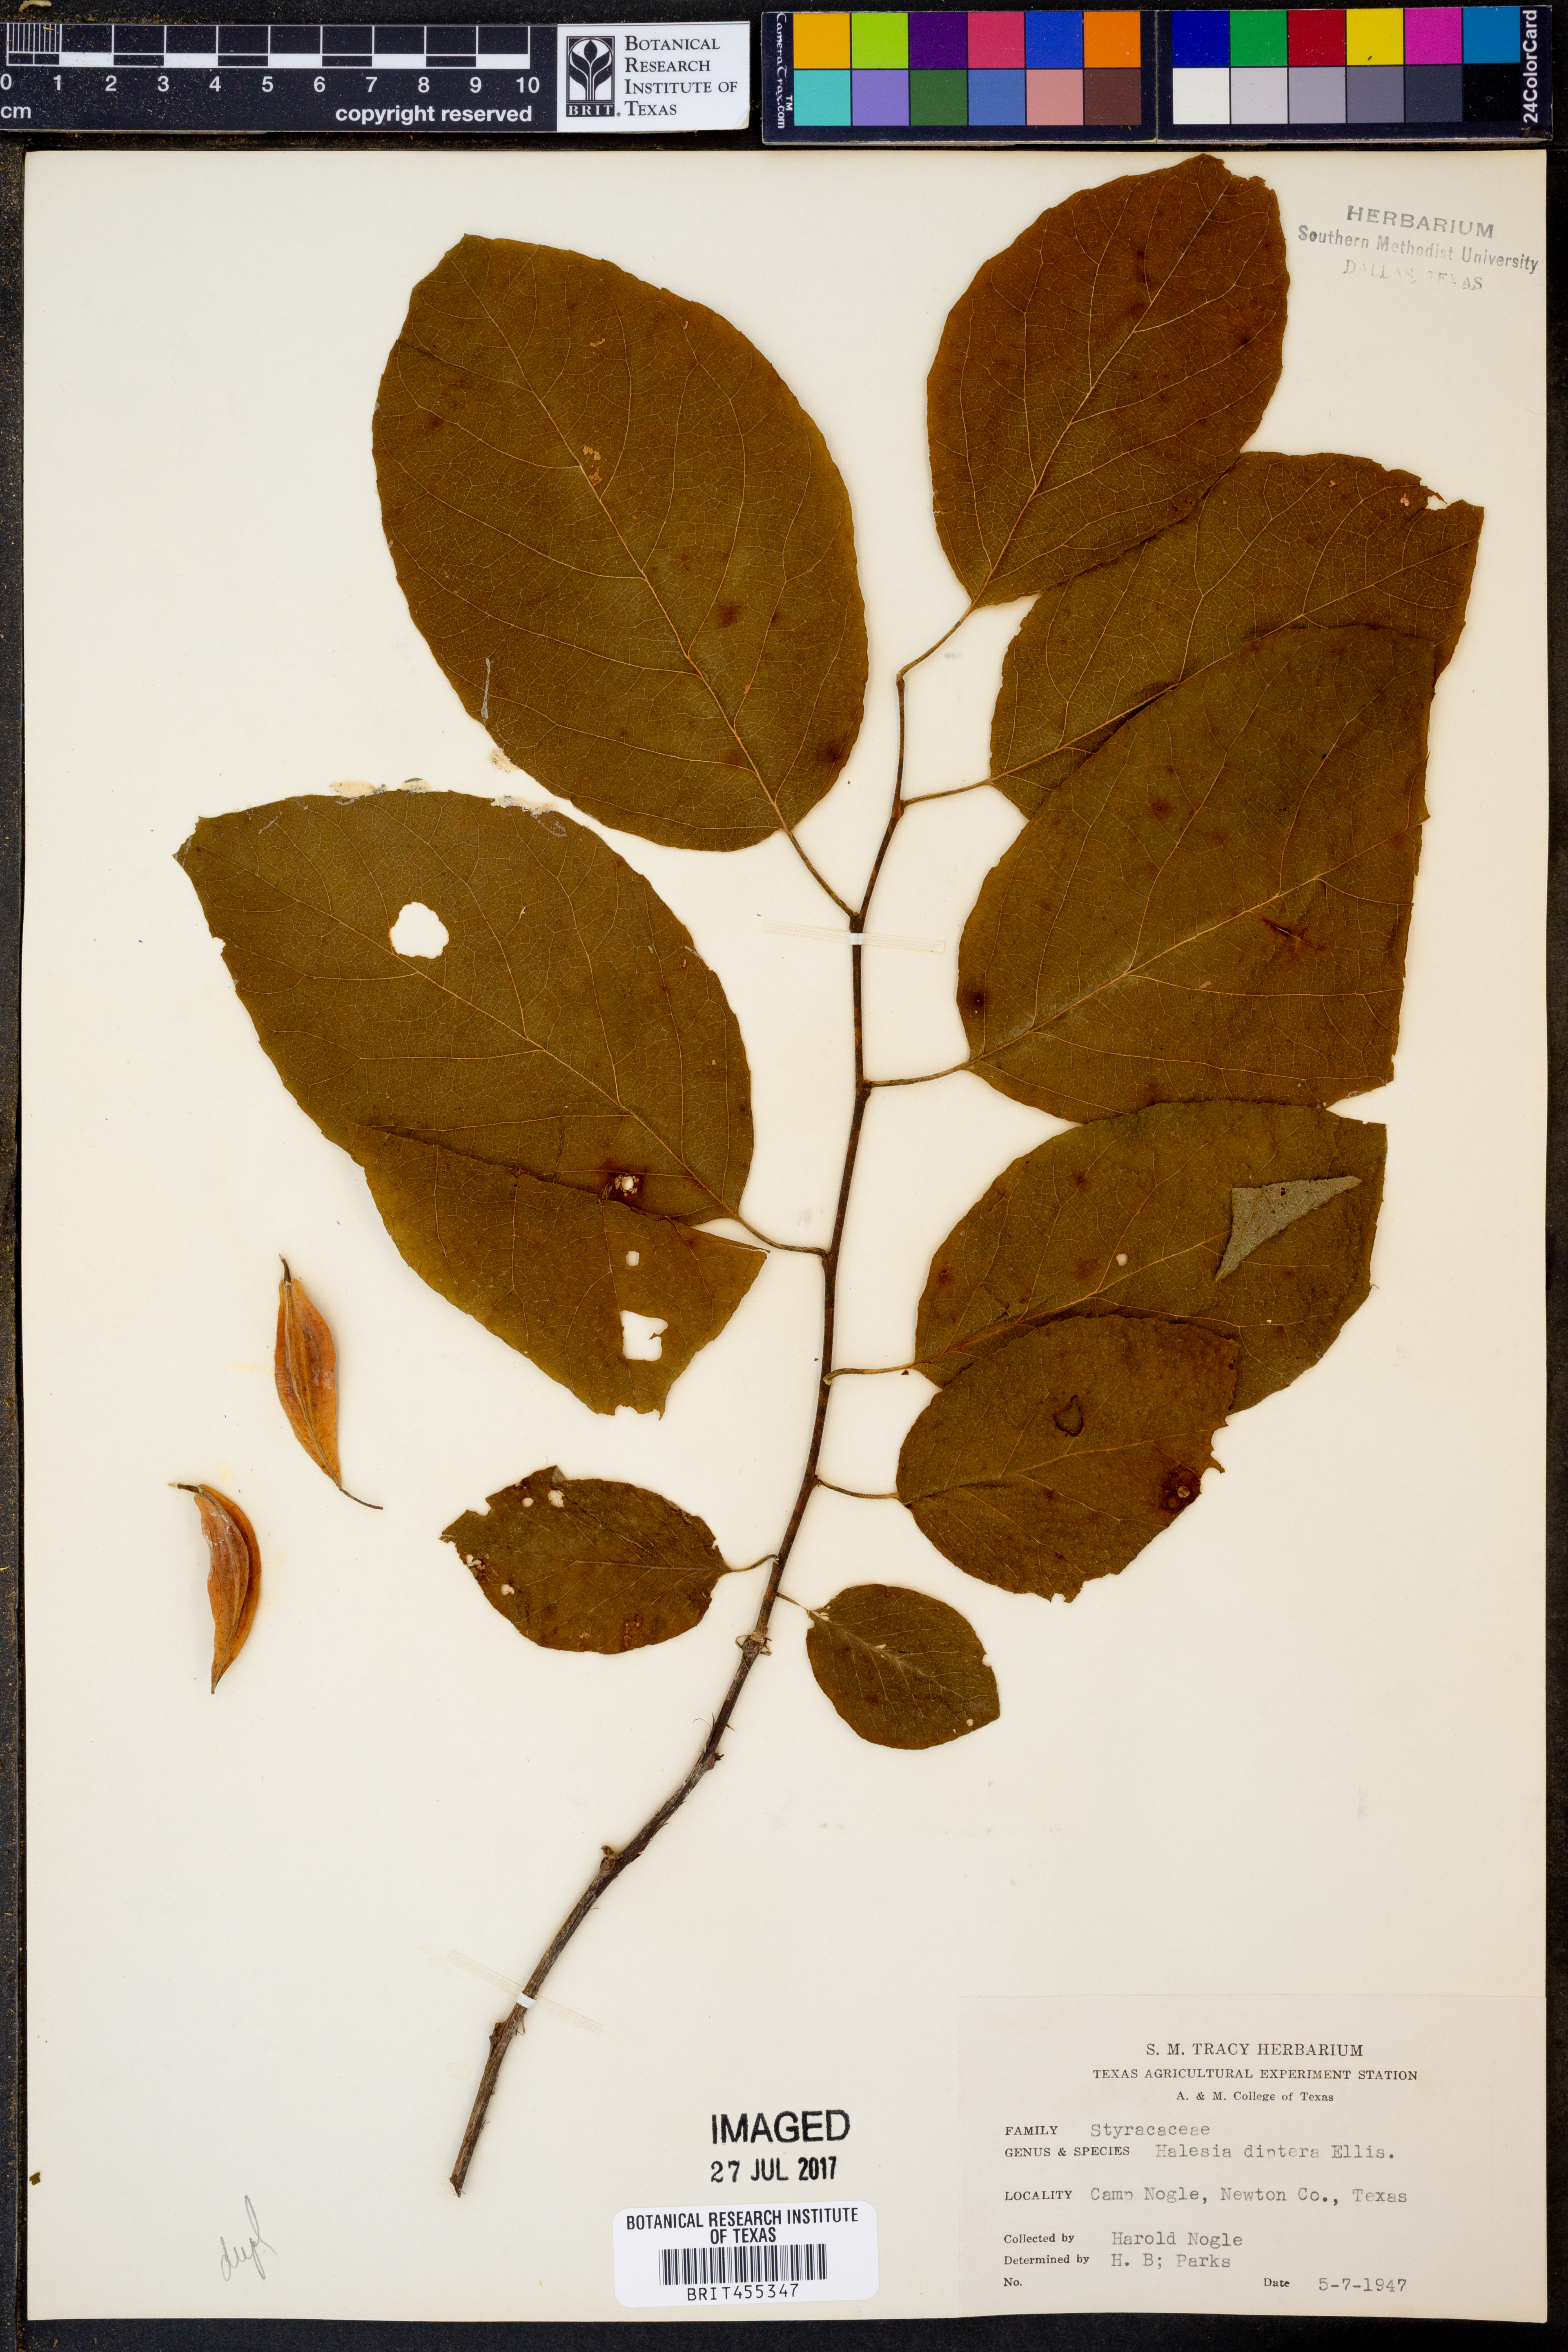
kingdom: Plantae
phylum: Tracheophyta
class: Magnoliopsida
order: Ericales
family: Styracaceae
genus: Halesia
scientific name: Halesia diptera
